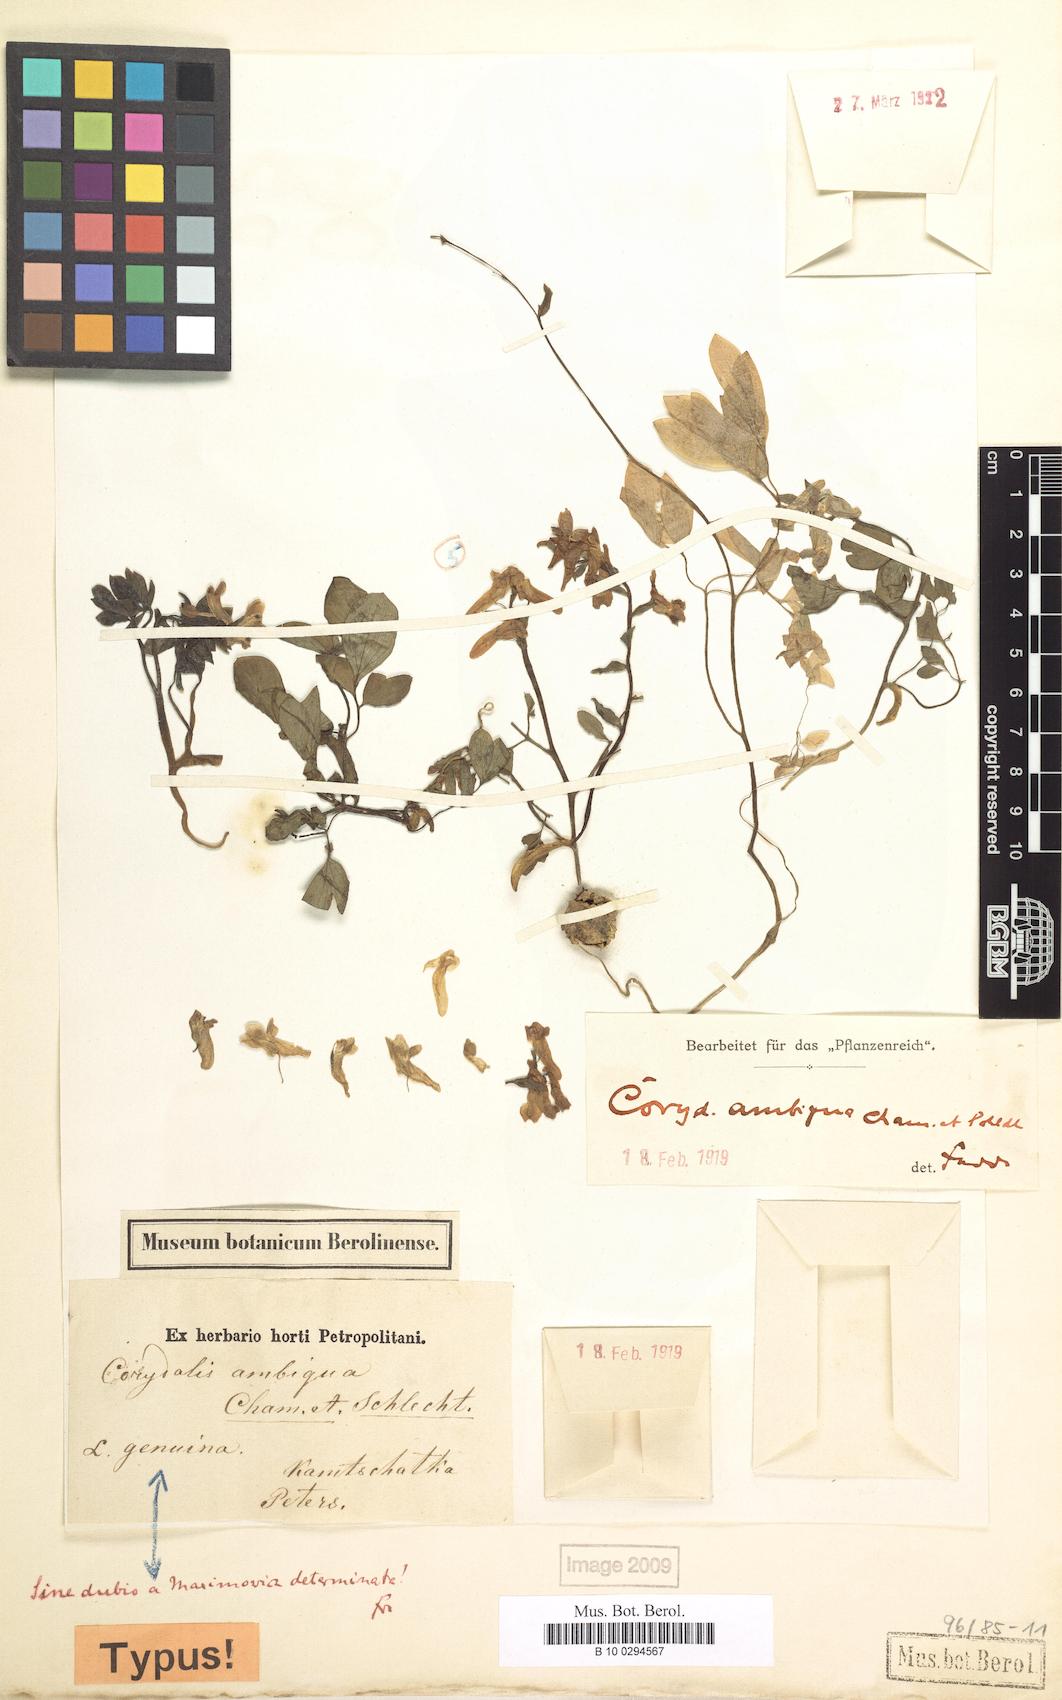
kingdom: Plantae
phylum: Tracheophyta
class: Magnoliopsida
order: Ranunculales
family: Papaveraceae
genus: Corydalis
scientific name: Corydalis ambigua
